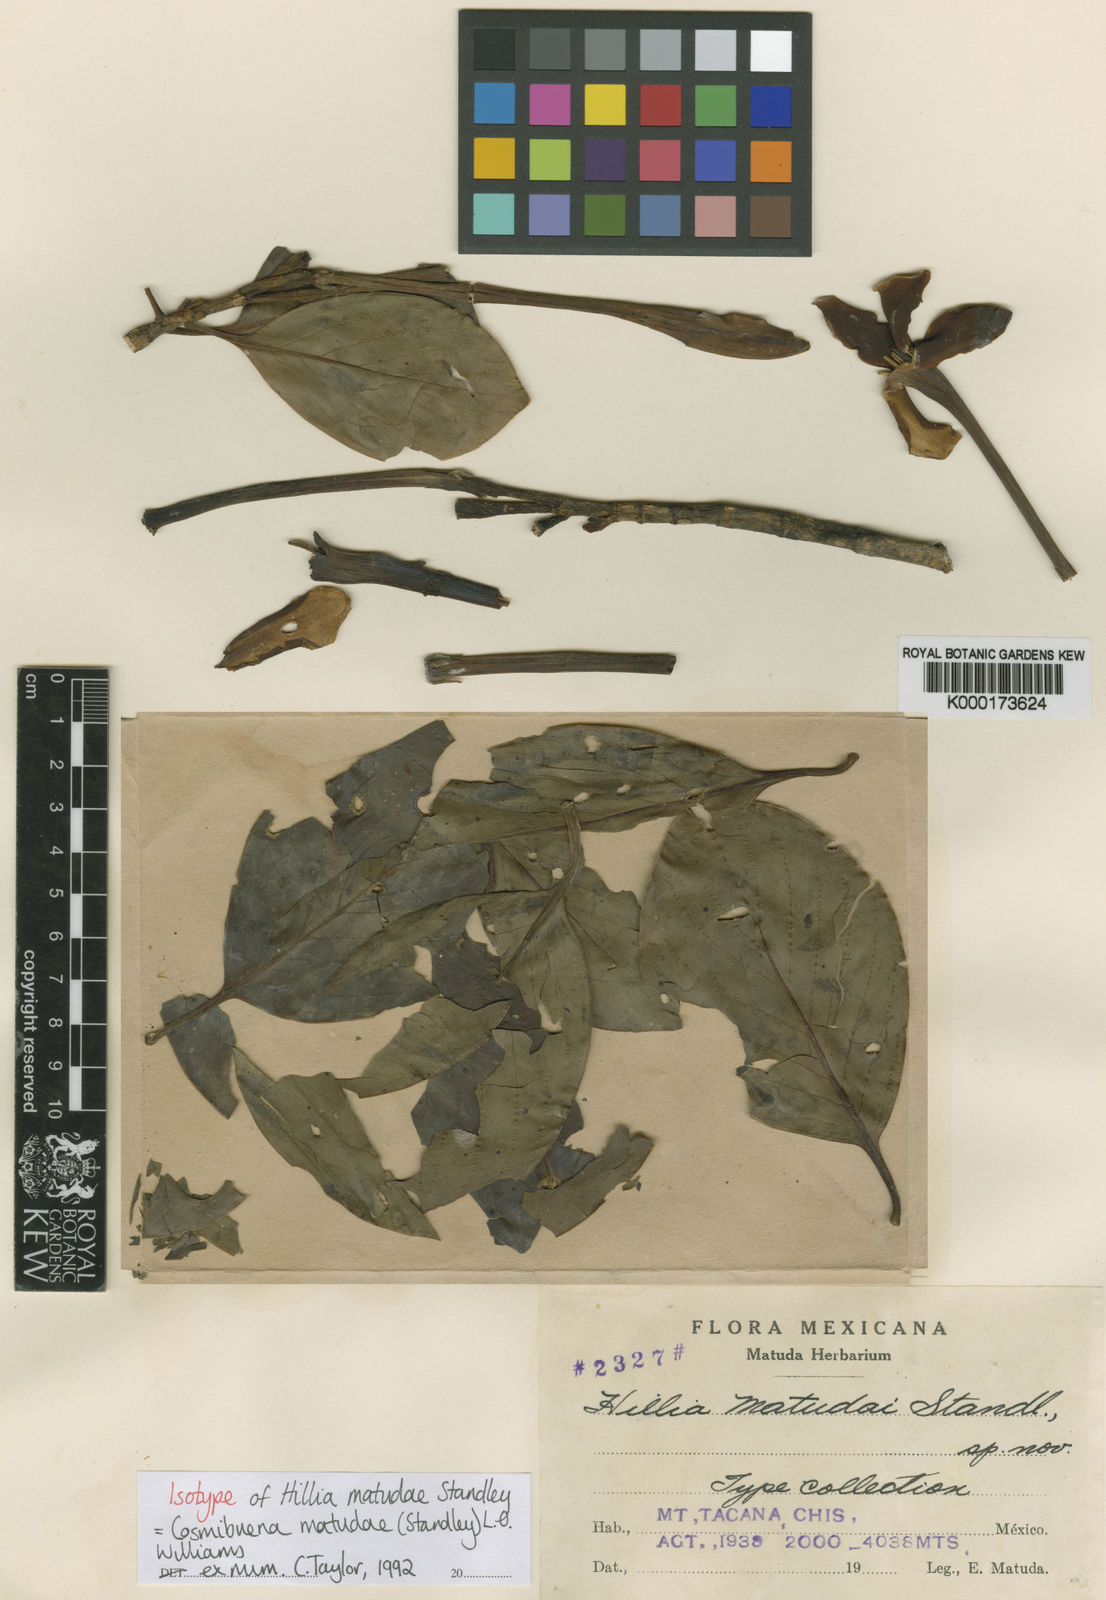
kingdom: Plantae
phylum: Tracheophyta
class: Magnoliopsida
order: Gentianales
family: Rubiaceae
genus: Cosmibuena
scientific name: Cosmibuena matudae
